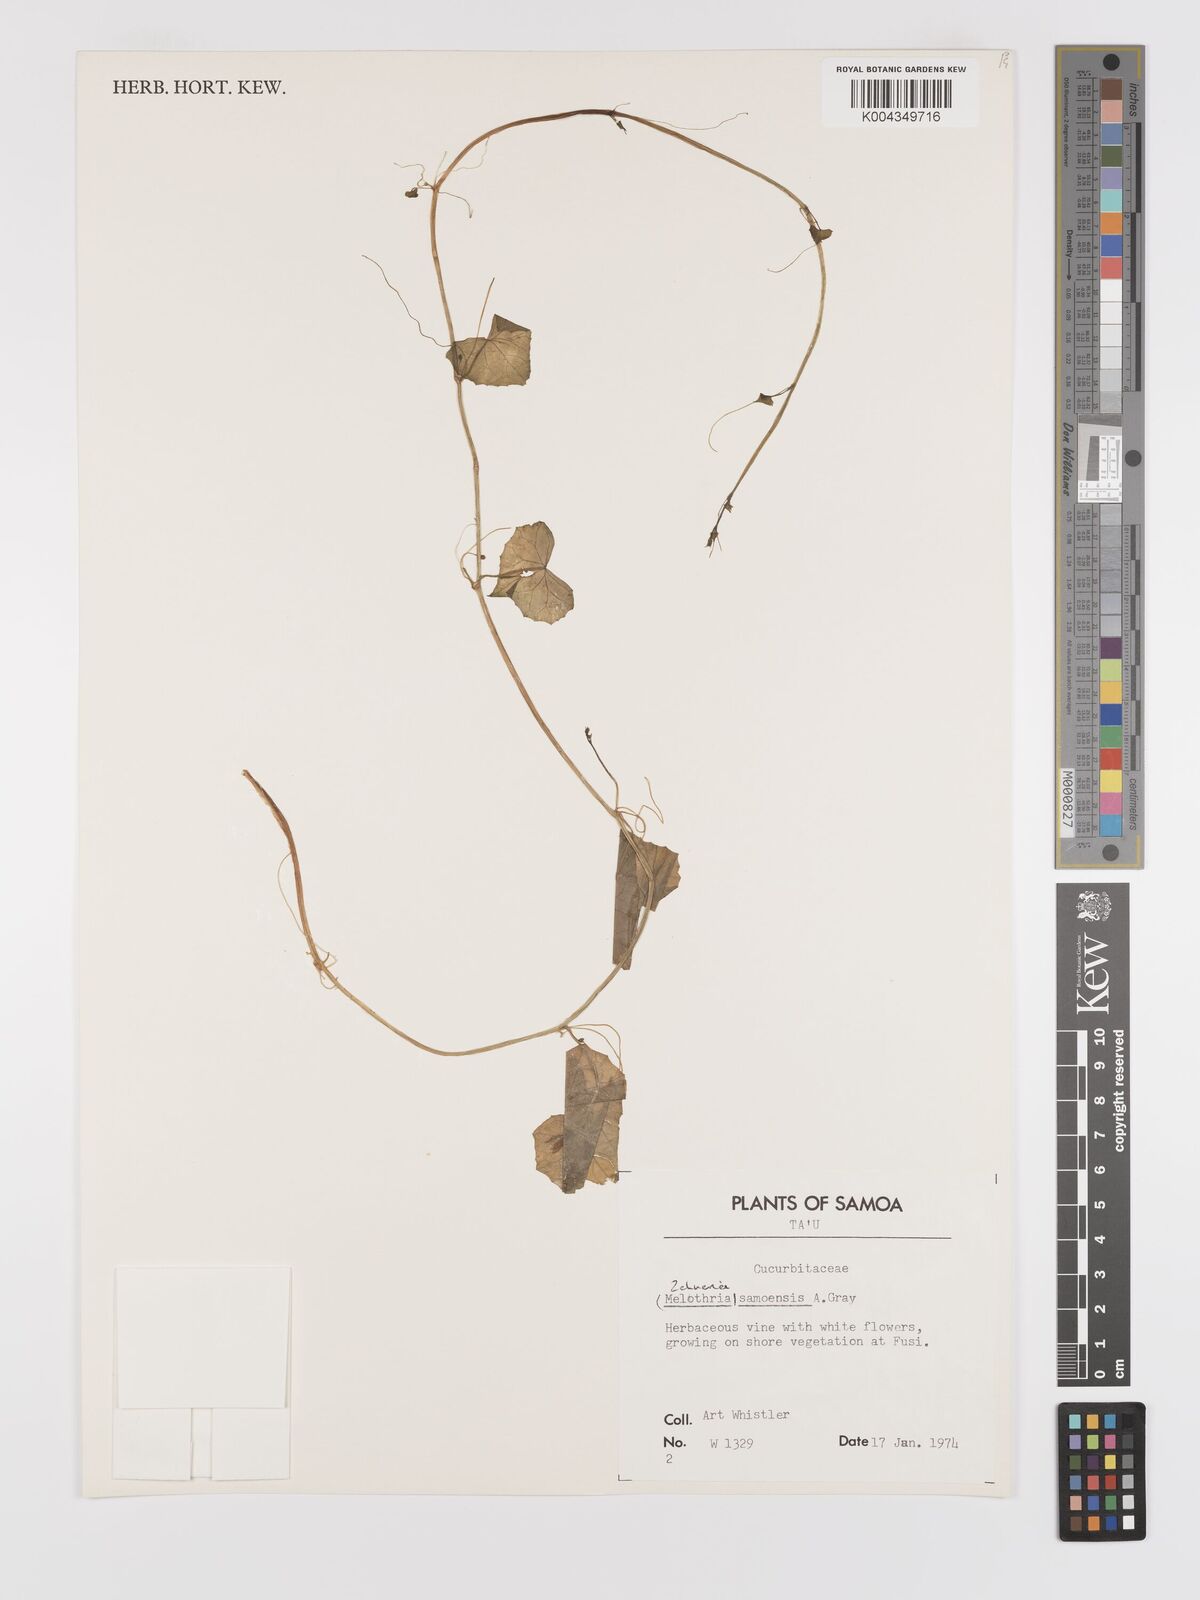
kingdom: Plantae
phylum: Tracheophyta
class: Magnoliopsida
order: Cucurbitales
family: Cucurbitaceae
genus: Zehneria
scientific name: Zehneria mucronata
